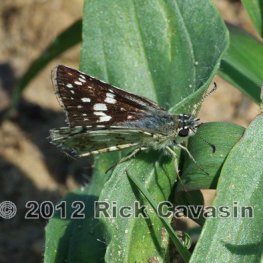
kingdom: Animalia
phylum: Arthropoda
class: Insecta
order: Lepidoptera
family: Hesperiidae
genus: Pyrgus
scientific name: Pyrgus communis
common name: Common Checkered-Skipper
